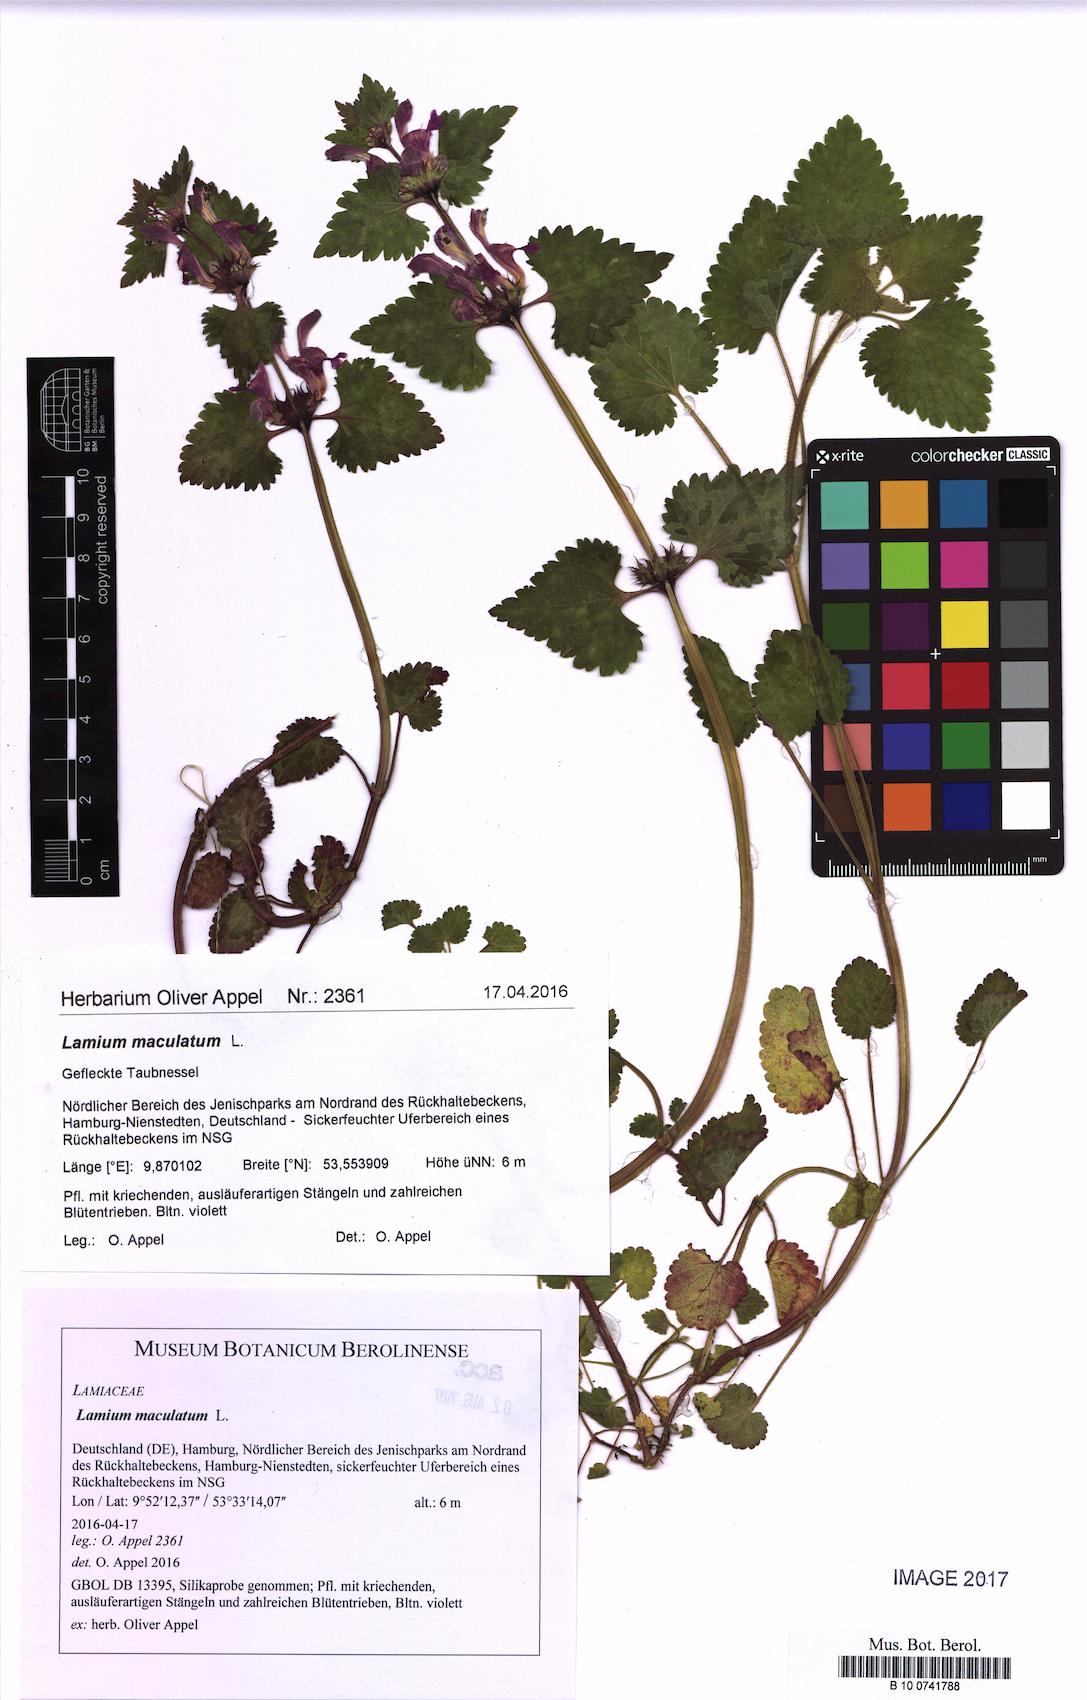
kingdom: Plantae
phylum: Tracheophyta
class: Magnoliopsida
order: Lamiales
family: Lamiaceae
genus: Lamium
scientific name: Lamium maculatum
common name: Spotted dead-nettle
